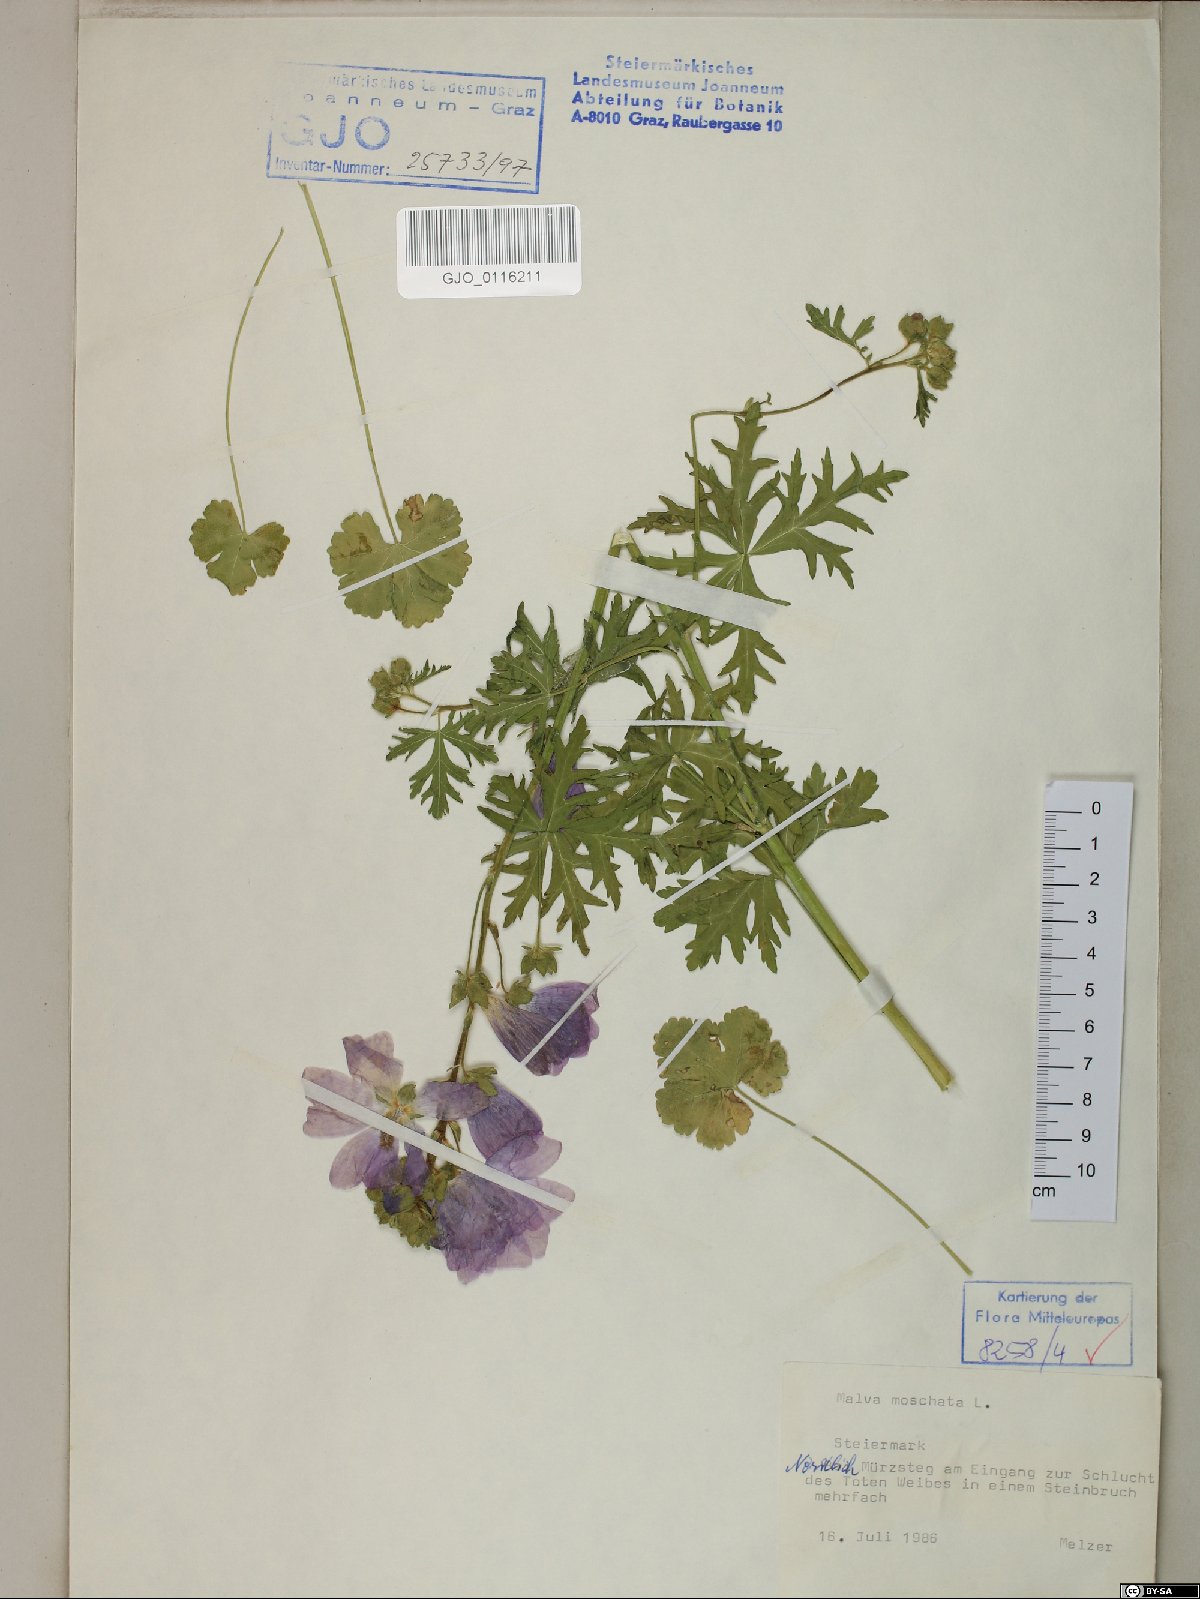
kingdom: Plantae
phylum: Tracheophyta
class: Magnoliopsida
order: Malvales
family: Malvaceae
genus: Malva
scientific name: Malva moschata
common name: Musk mallow
